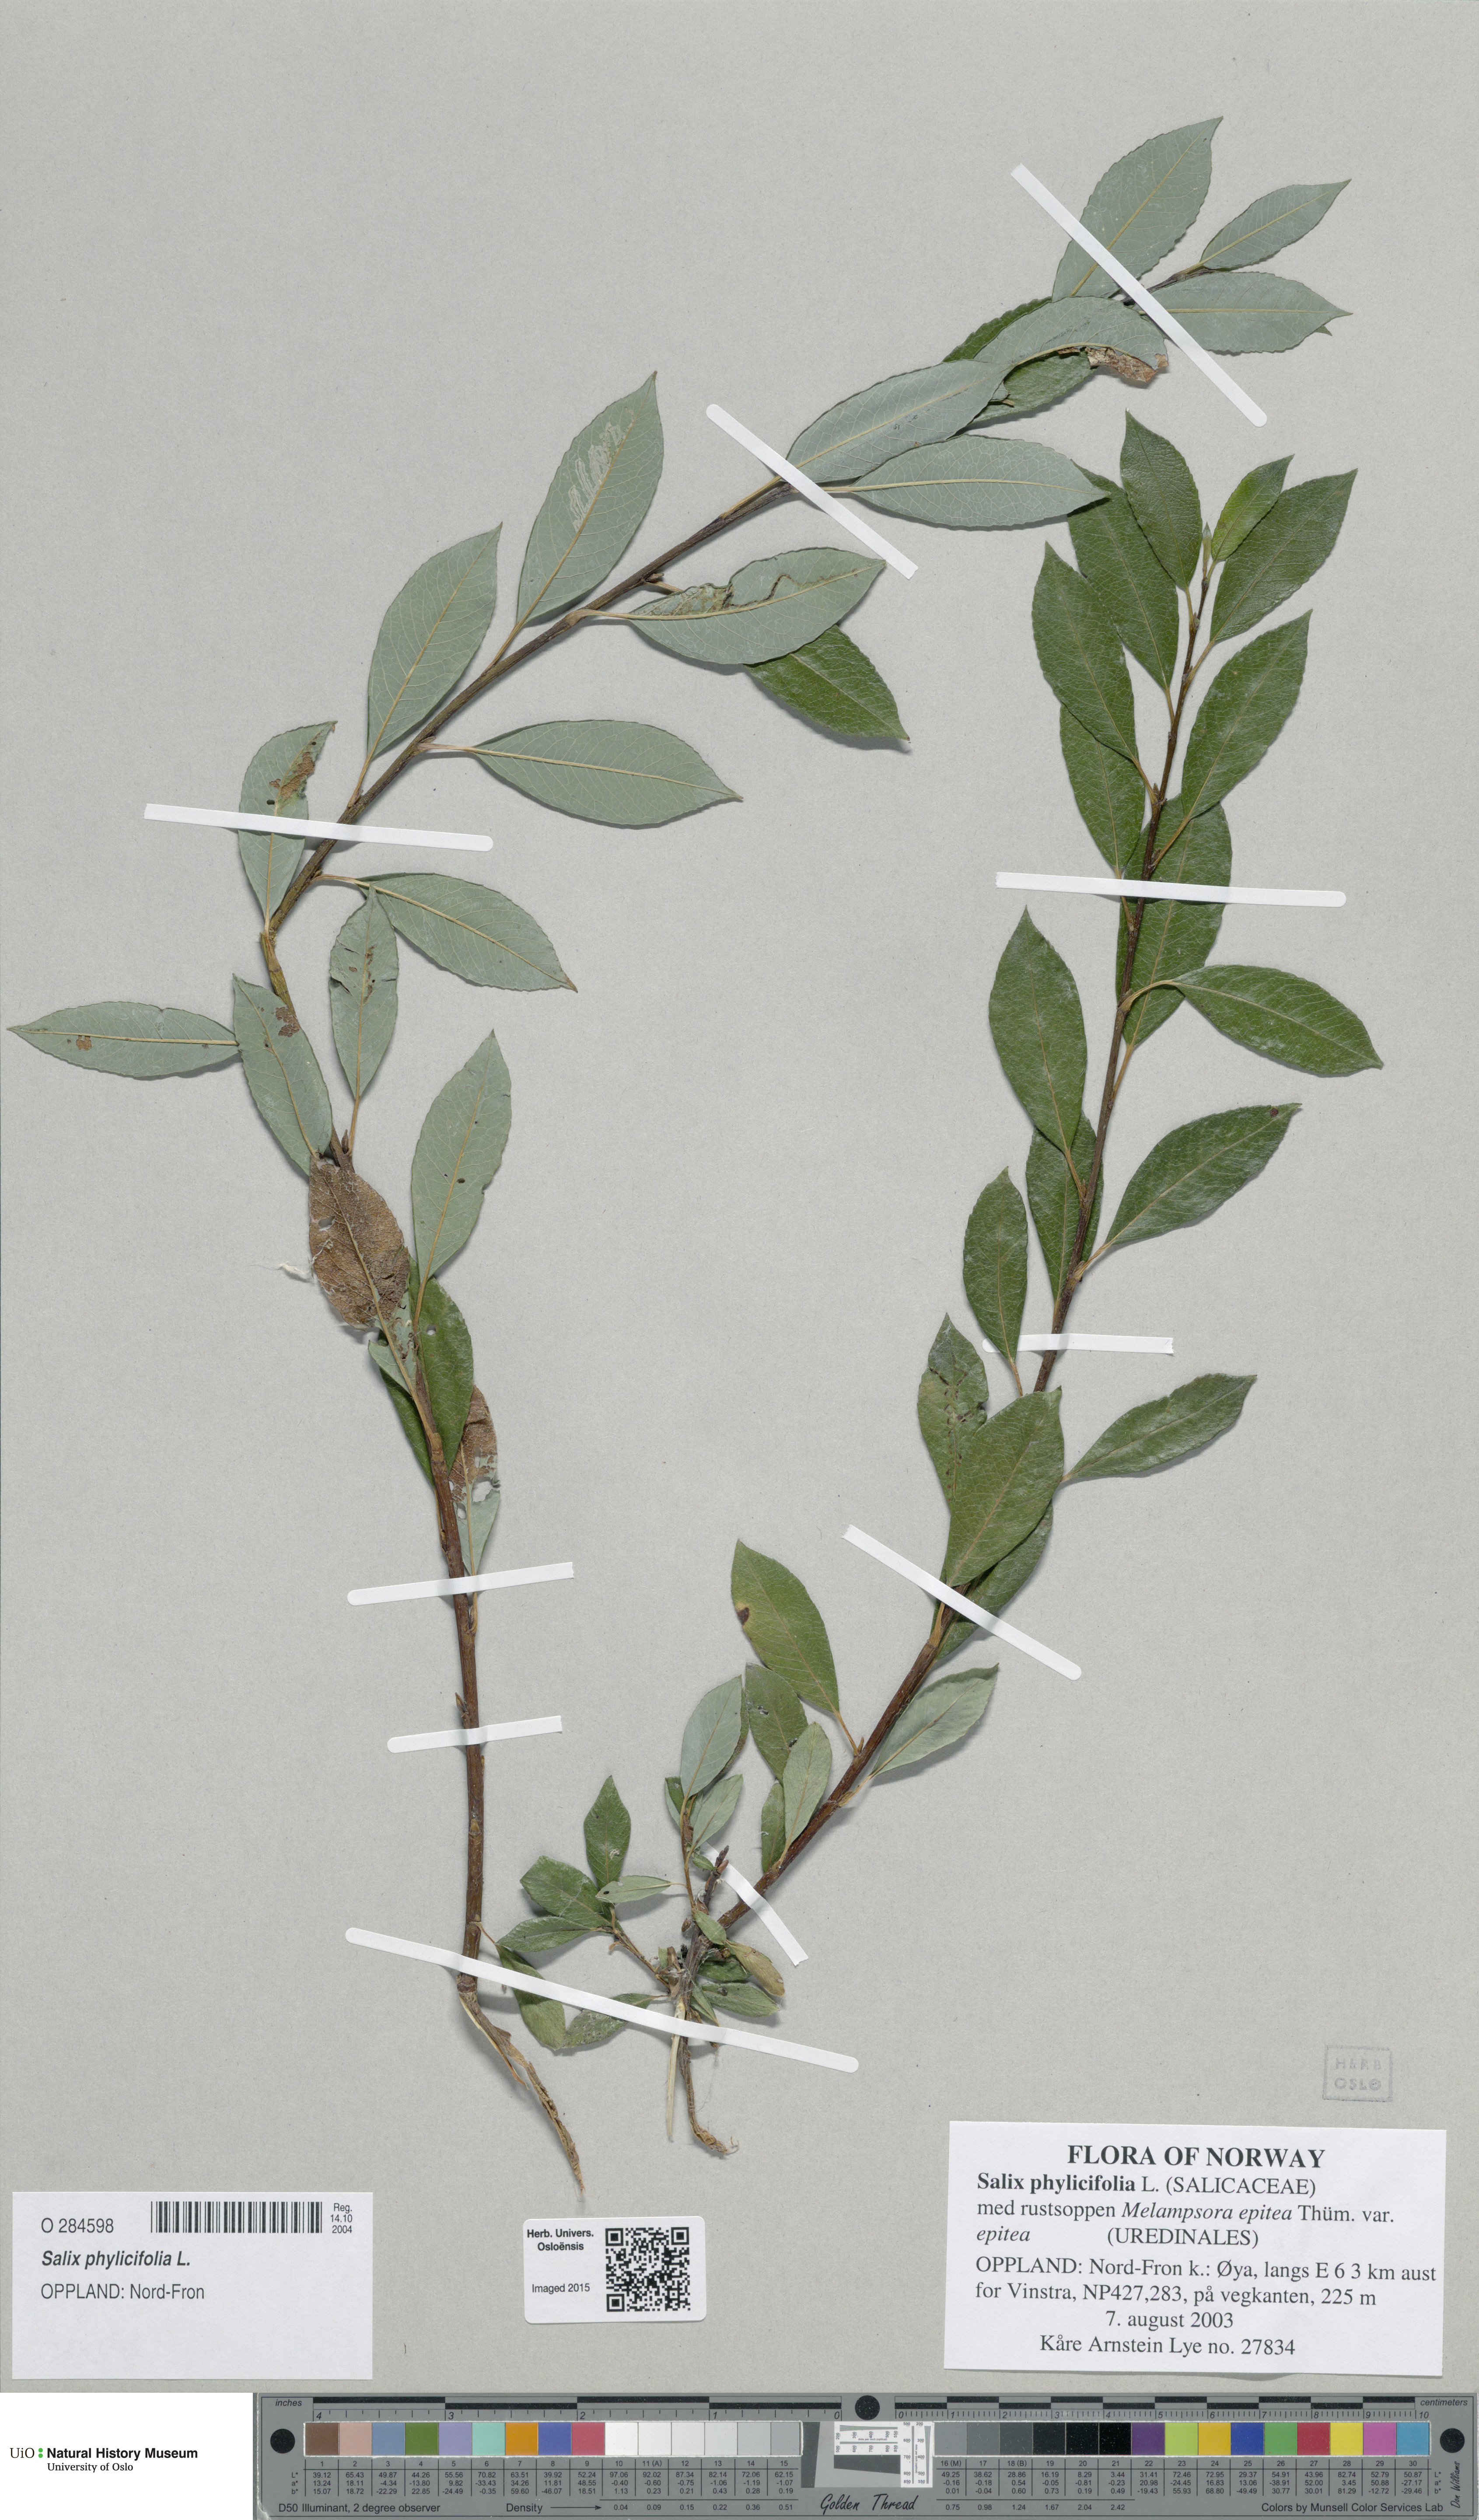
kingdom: Plantae
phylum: Tracheophyta
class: Magnoliopsida
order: Malpighiales
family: Salicaceae
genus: Salix
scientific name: Salix phylicifolia
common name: Tea-leaved willow
